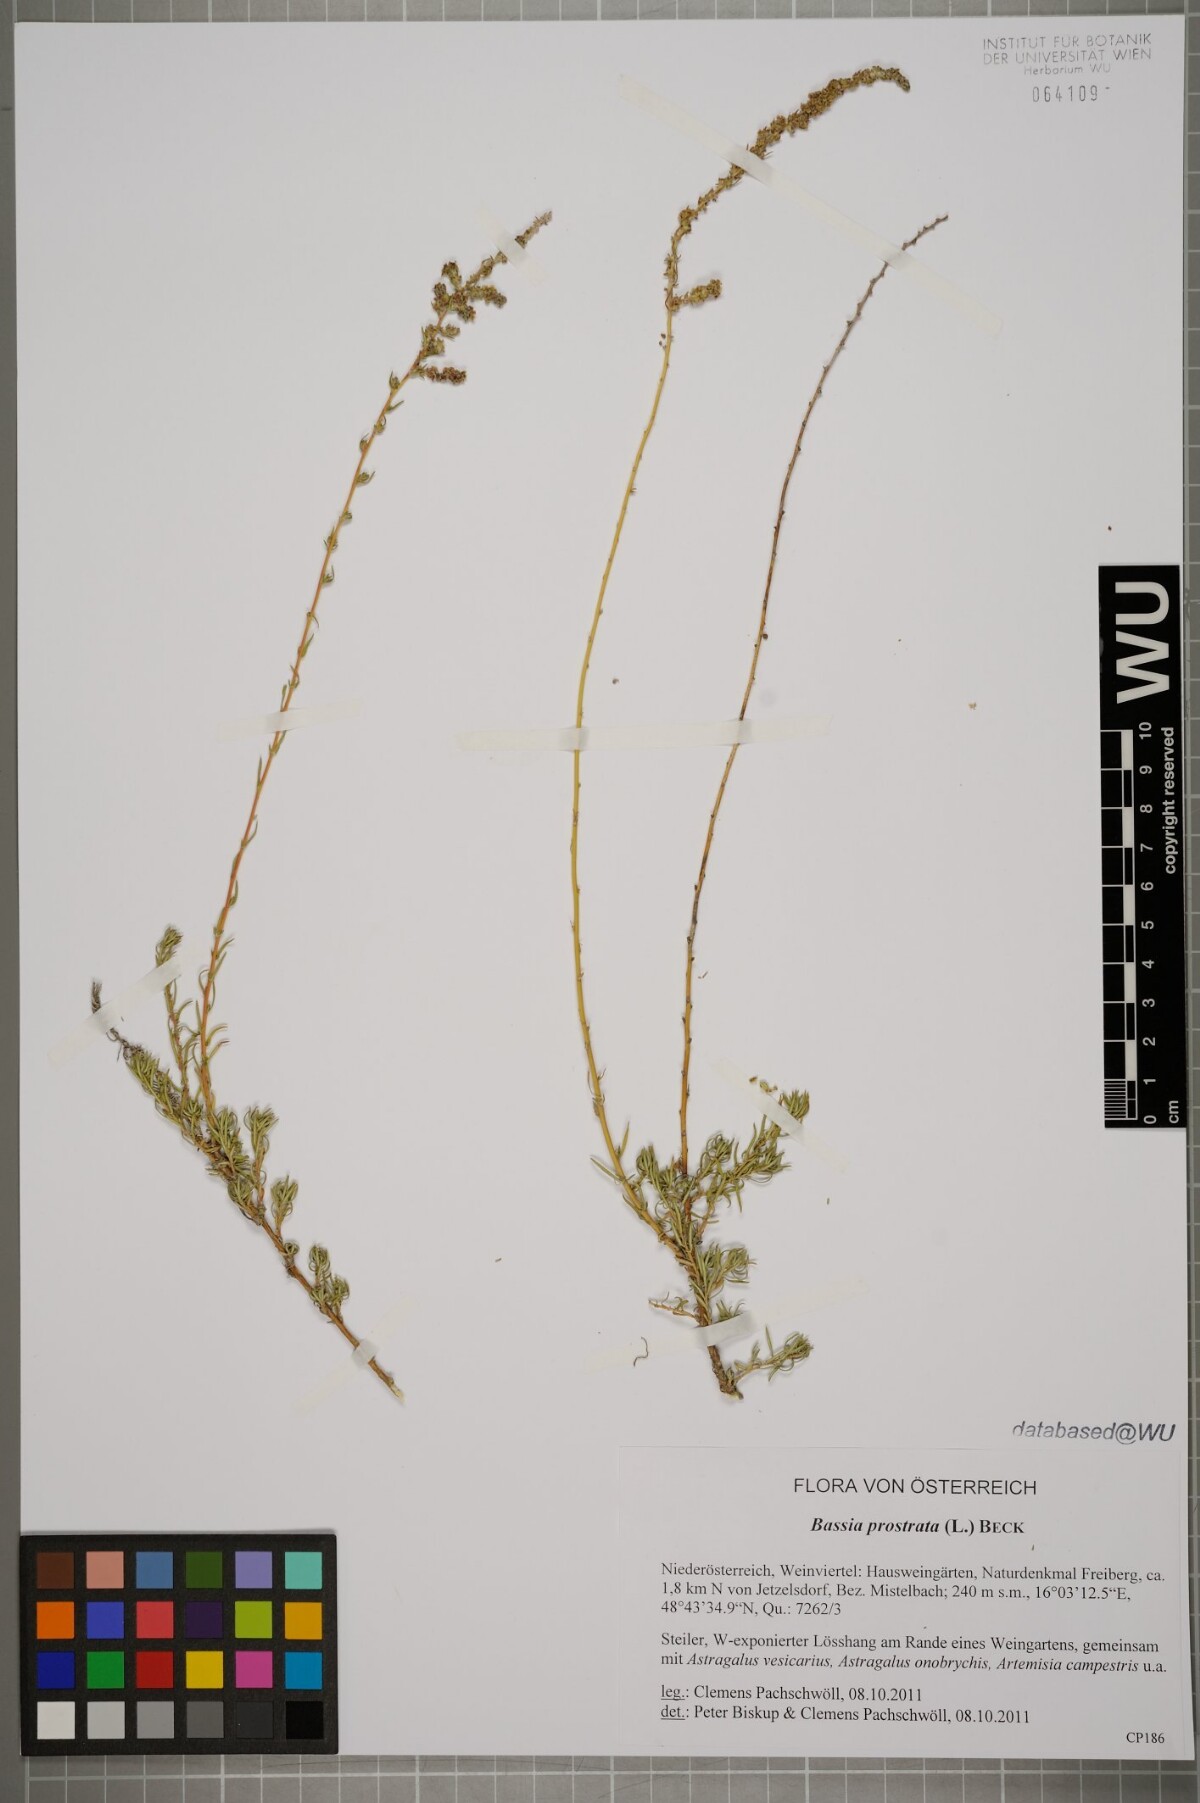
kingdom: Plantae
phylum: Tracheophyta
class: Magnoliopsida
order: Caryophyllales
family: Amaranthaceae
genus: Bassia
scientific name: Bassia prostrata
